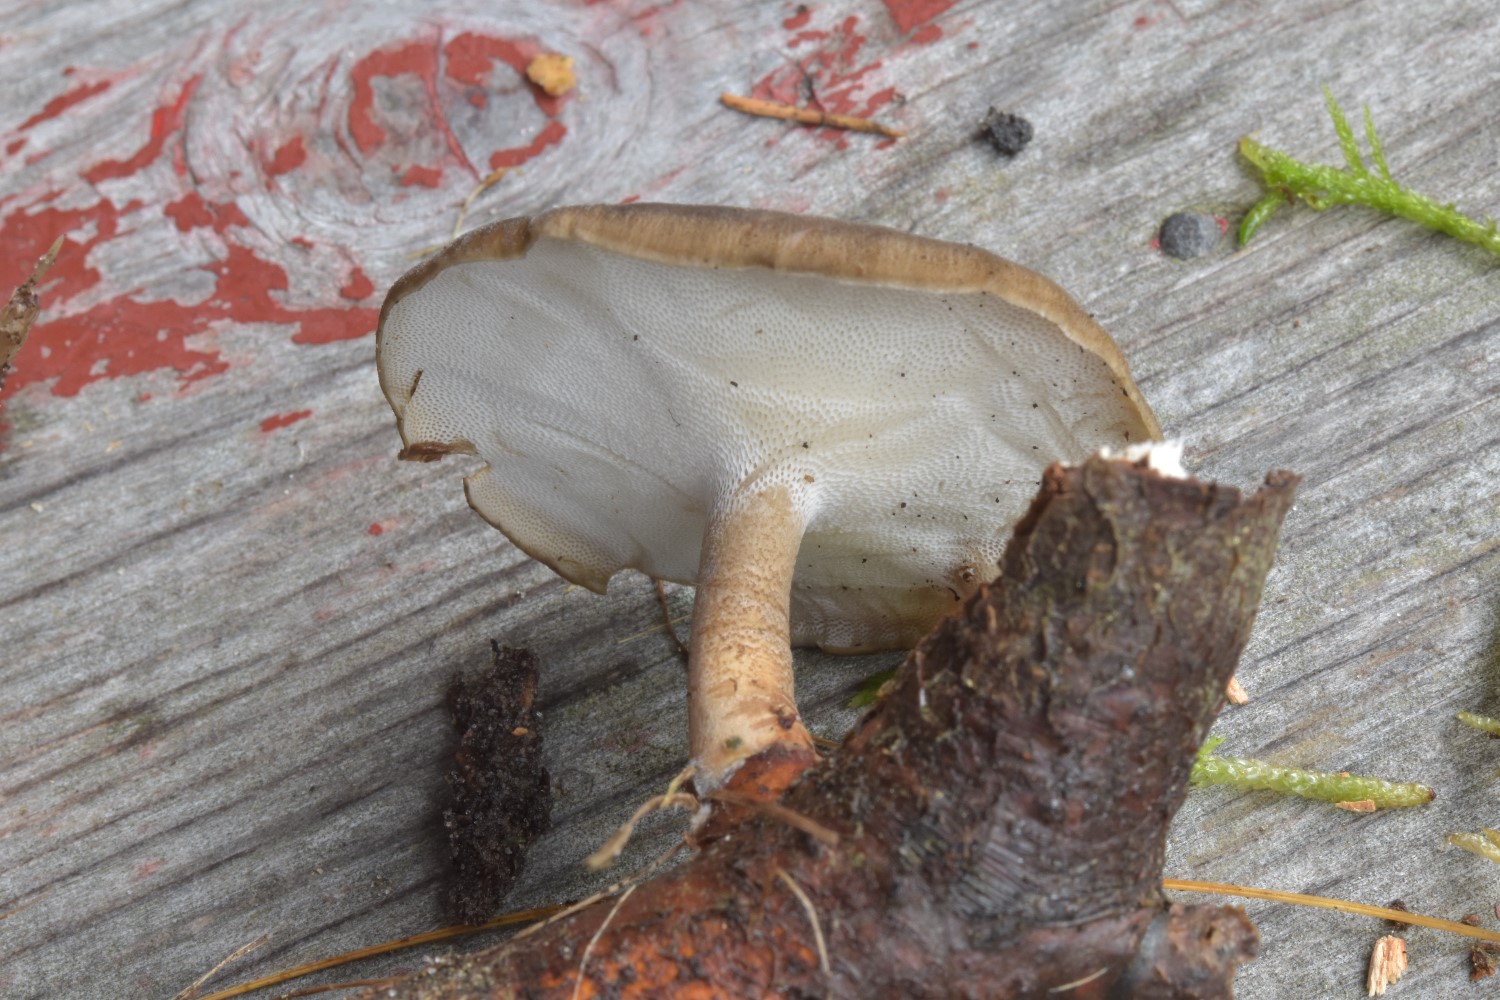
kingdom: Fungi
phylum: Basidiomycota
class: Agaricomycetes
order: Polyporales
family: Polyporaceae
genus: Lentinus
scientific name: Lentinus substrictus
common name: forårs-stilkporesvamp
